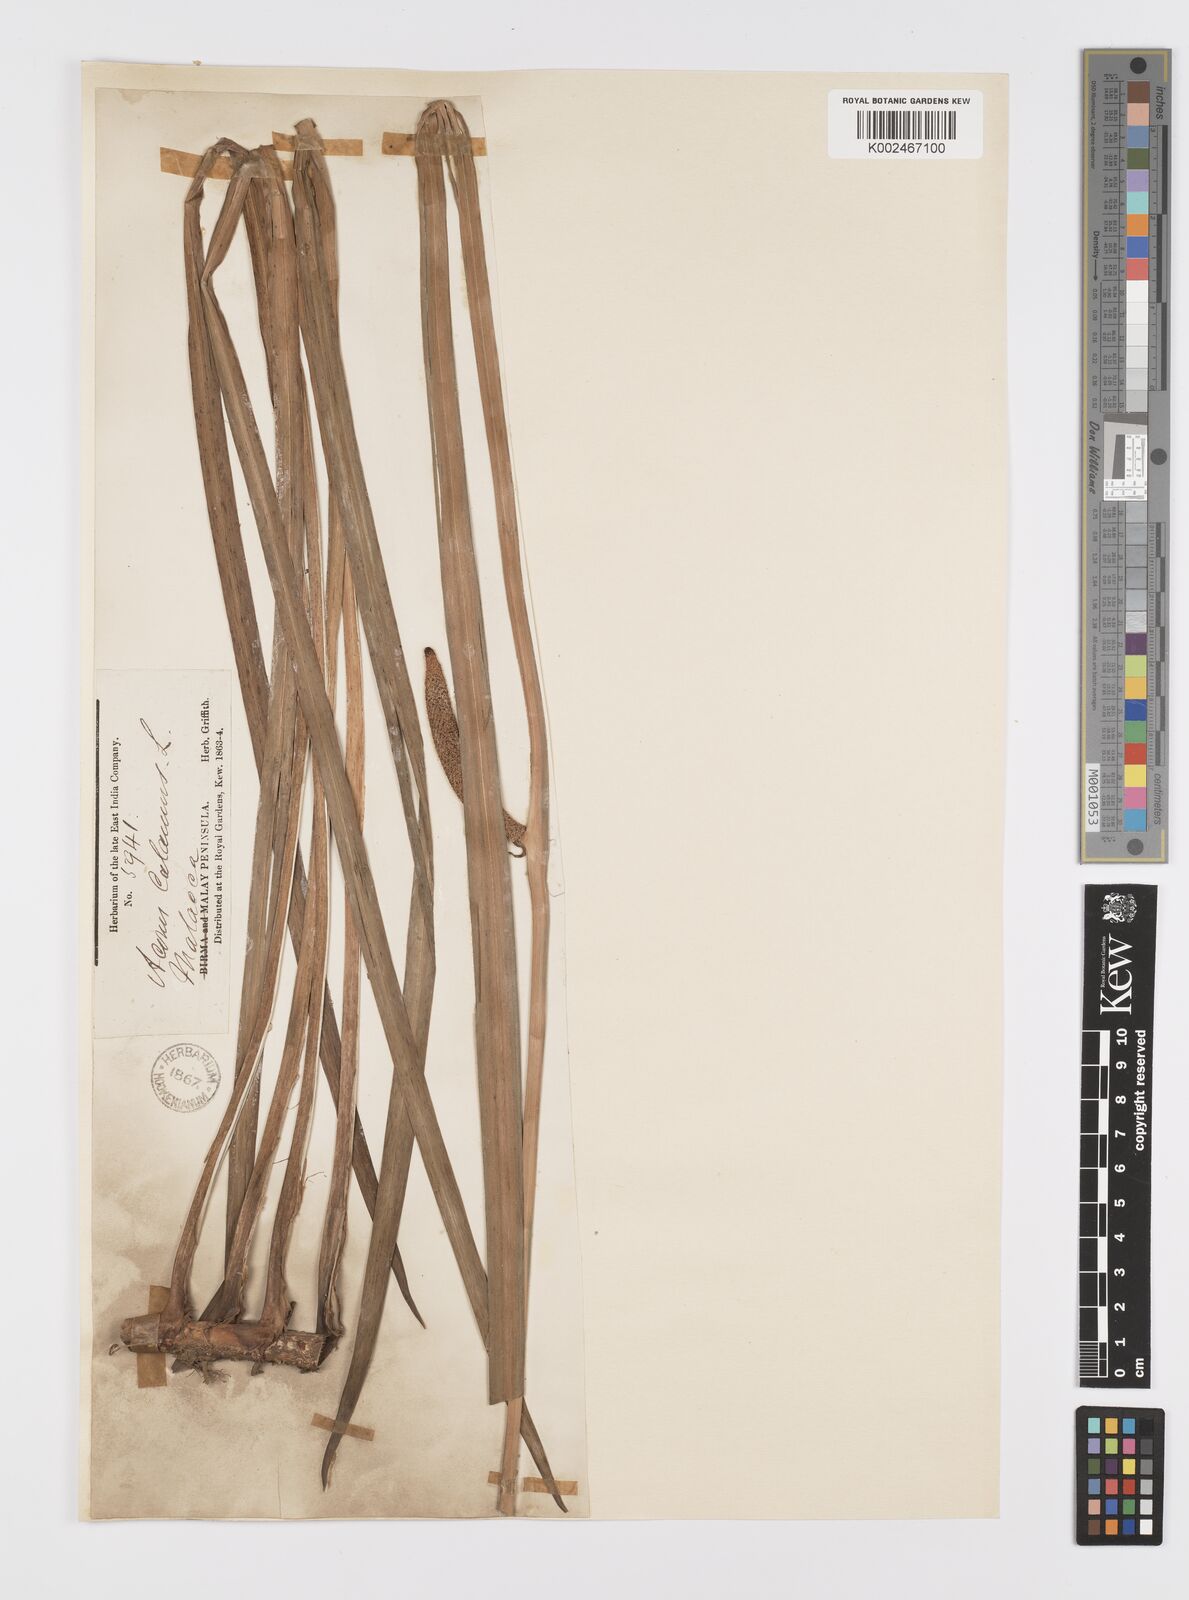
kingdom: Plantae
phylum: Tracheophyta
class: Liliopsida
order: Acorales
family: Acoraceae
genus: Acorus
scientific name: Acorus calamus
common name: Sweet-flag
